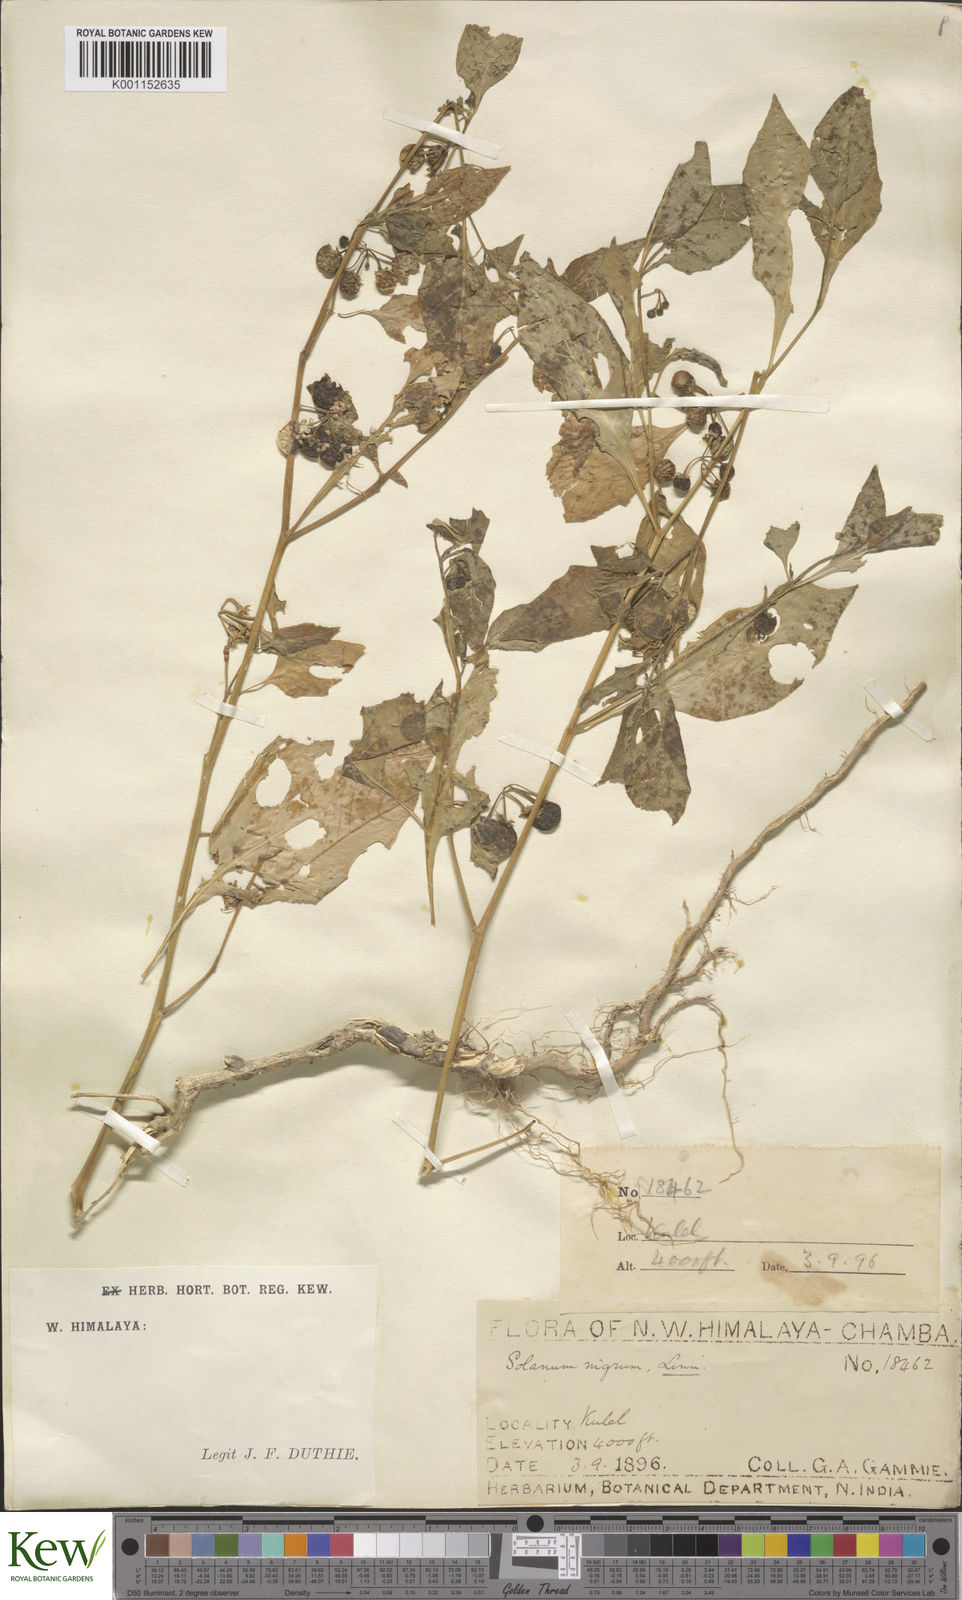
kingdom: Plantae
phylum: Tracheophyta
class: Magnoliopsida
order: Solanales
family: Solanaceae
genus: Solanum
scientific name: Solanum nigrum
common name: Black nightshade
